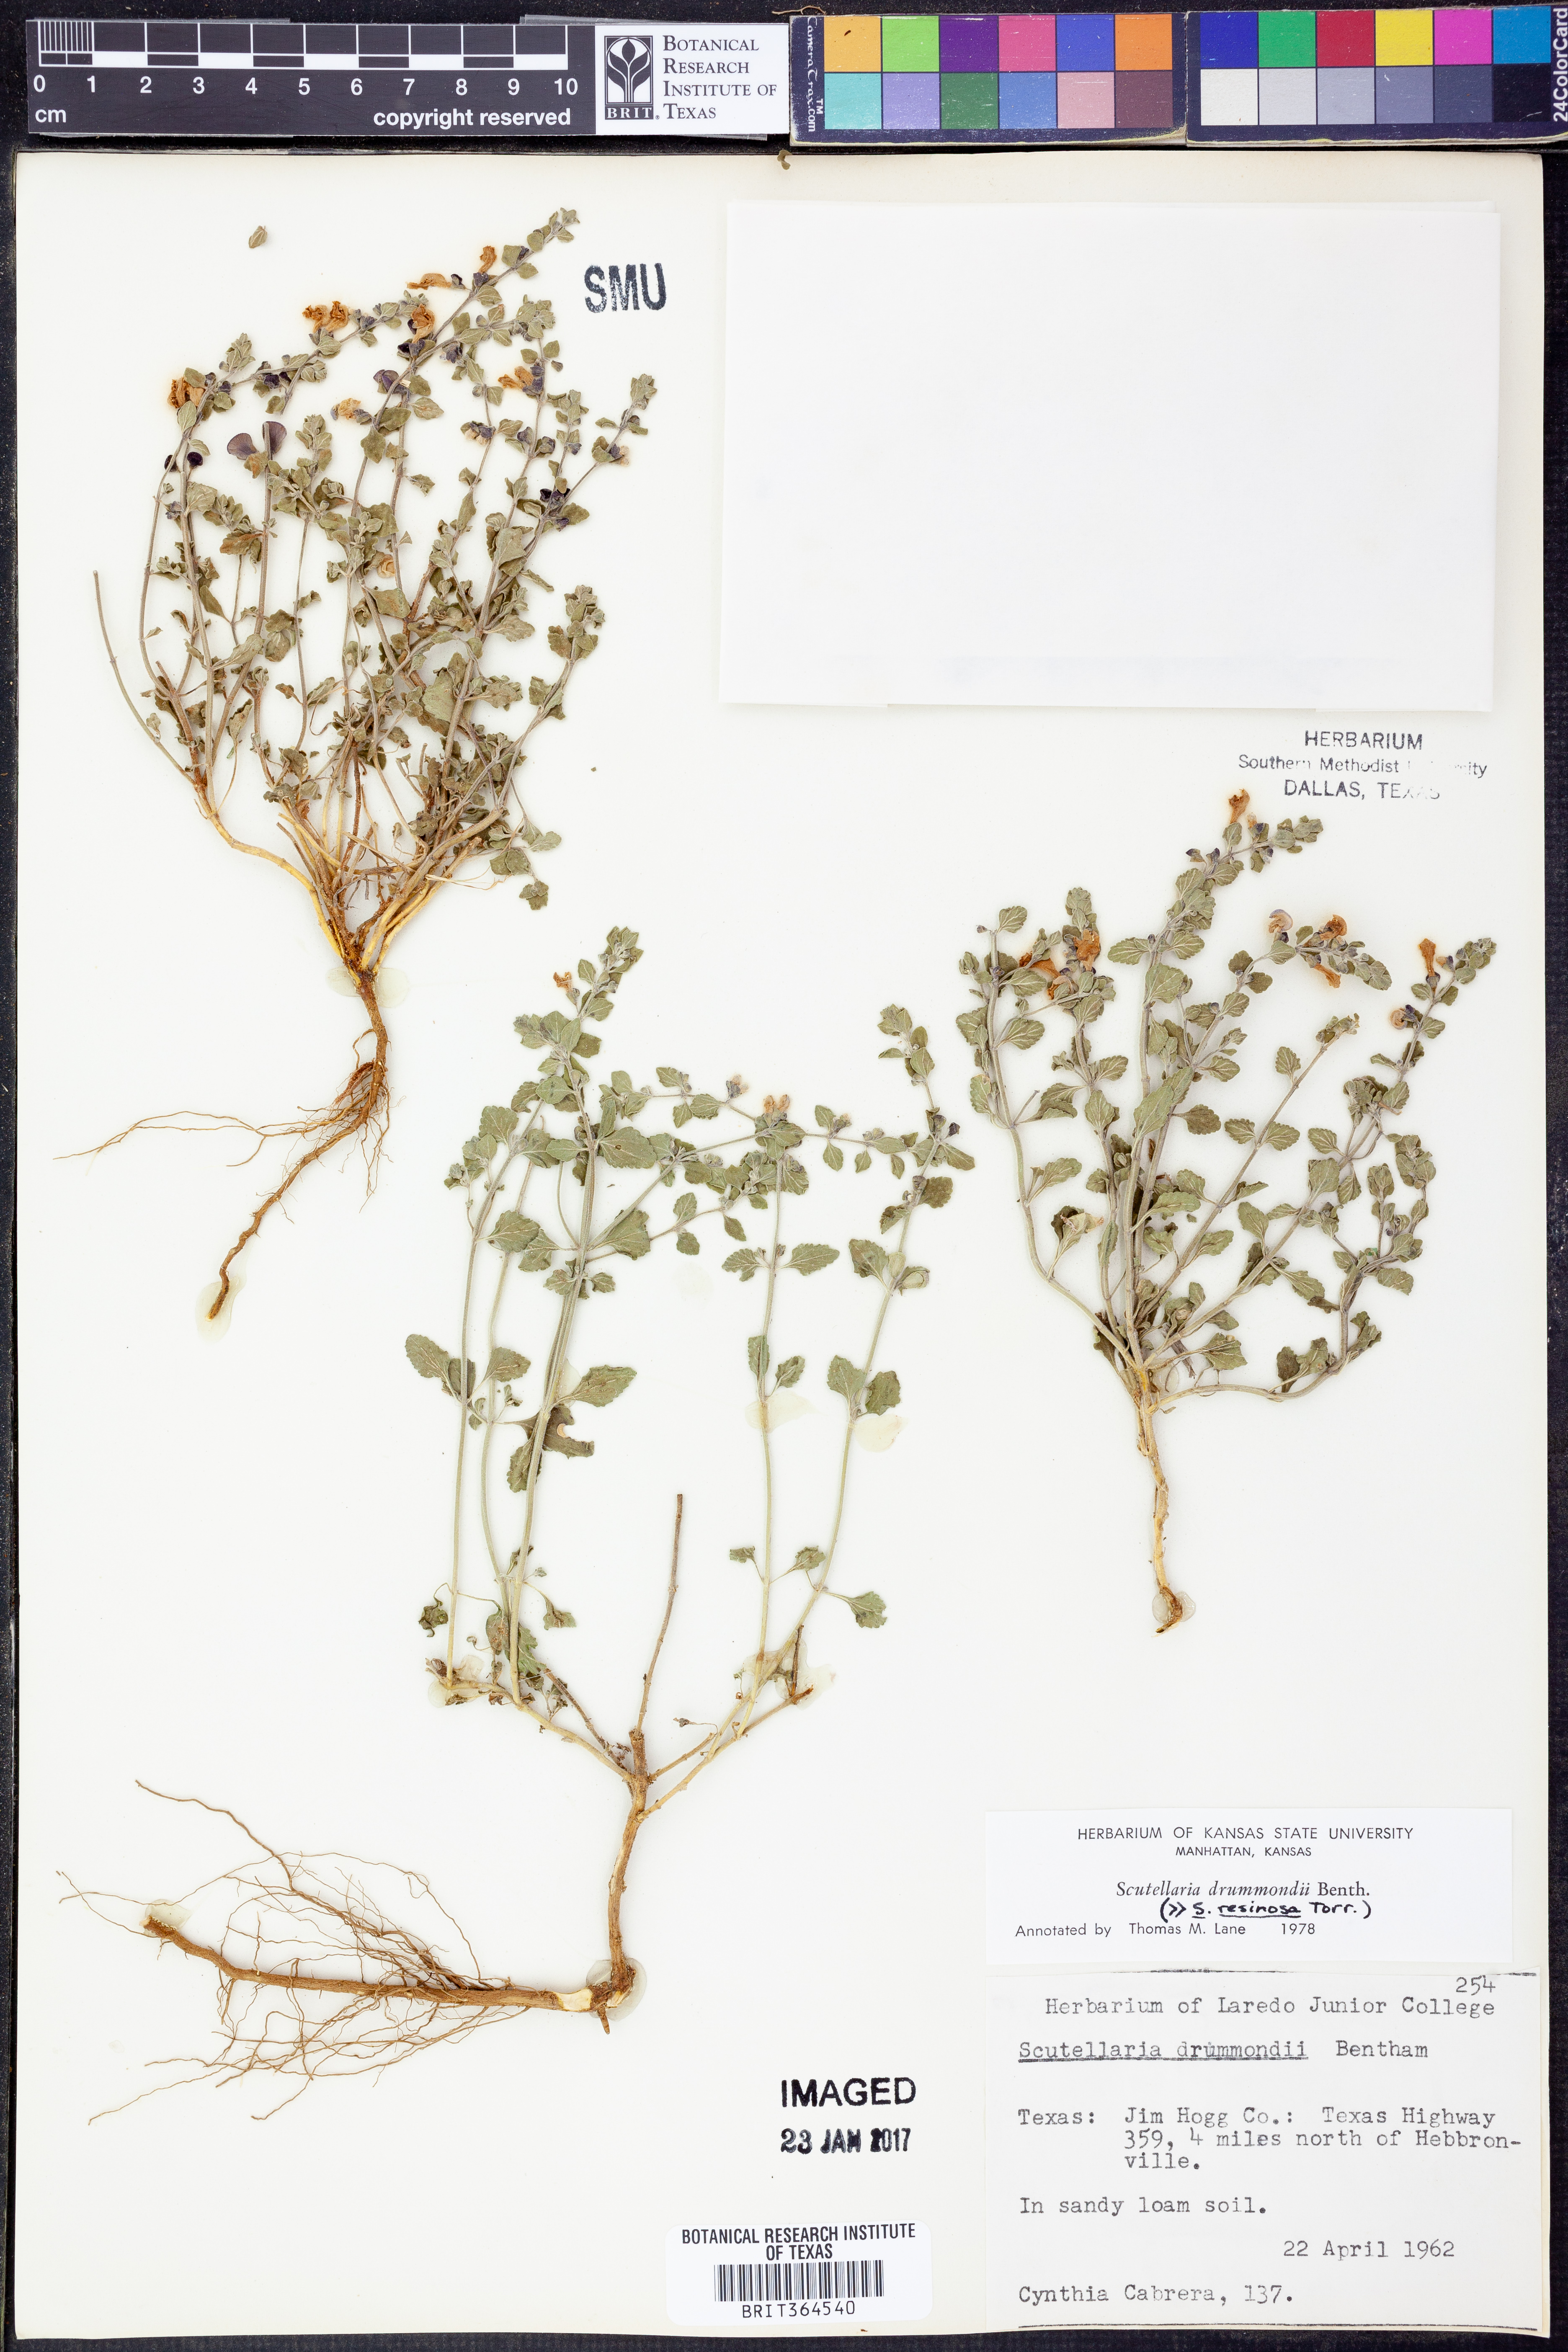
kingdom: Plantae
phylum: Tracheophyta
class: Magnoliopsida
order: Lamiales
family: Lamiaceae
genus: Scutellaria
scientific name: Scutellaria drummondii
